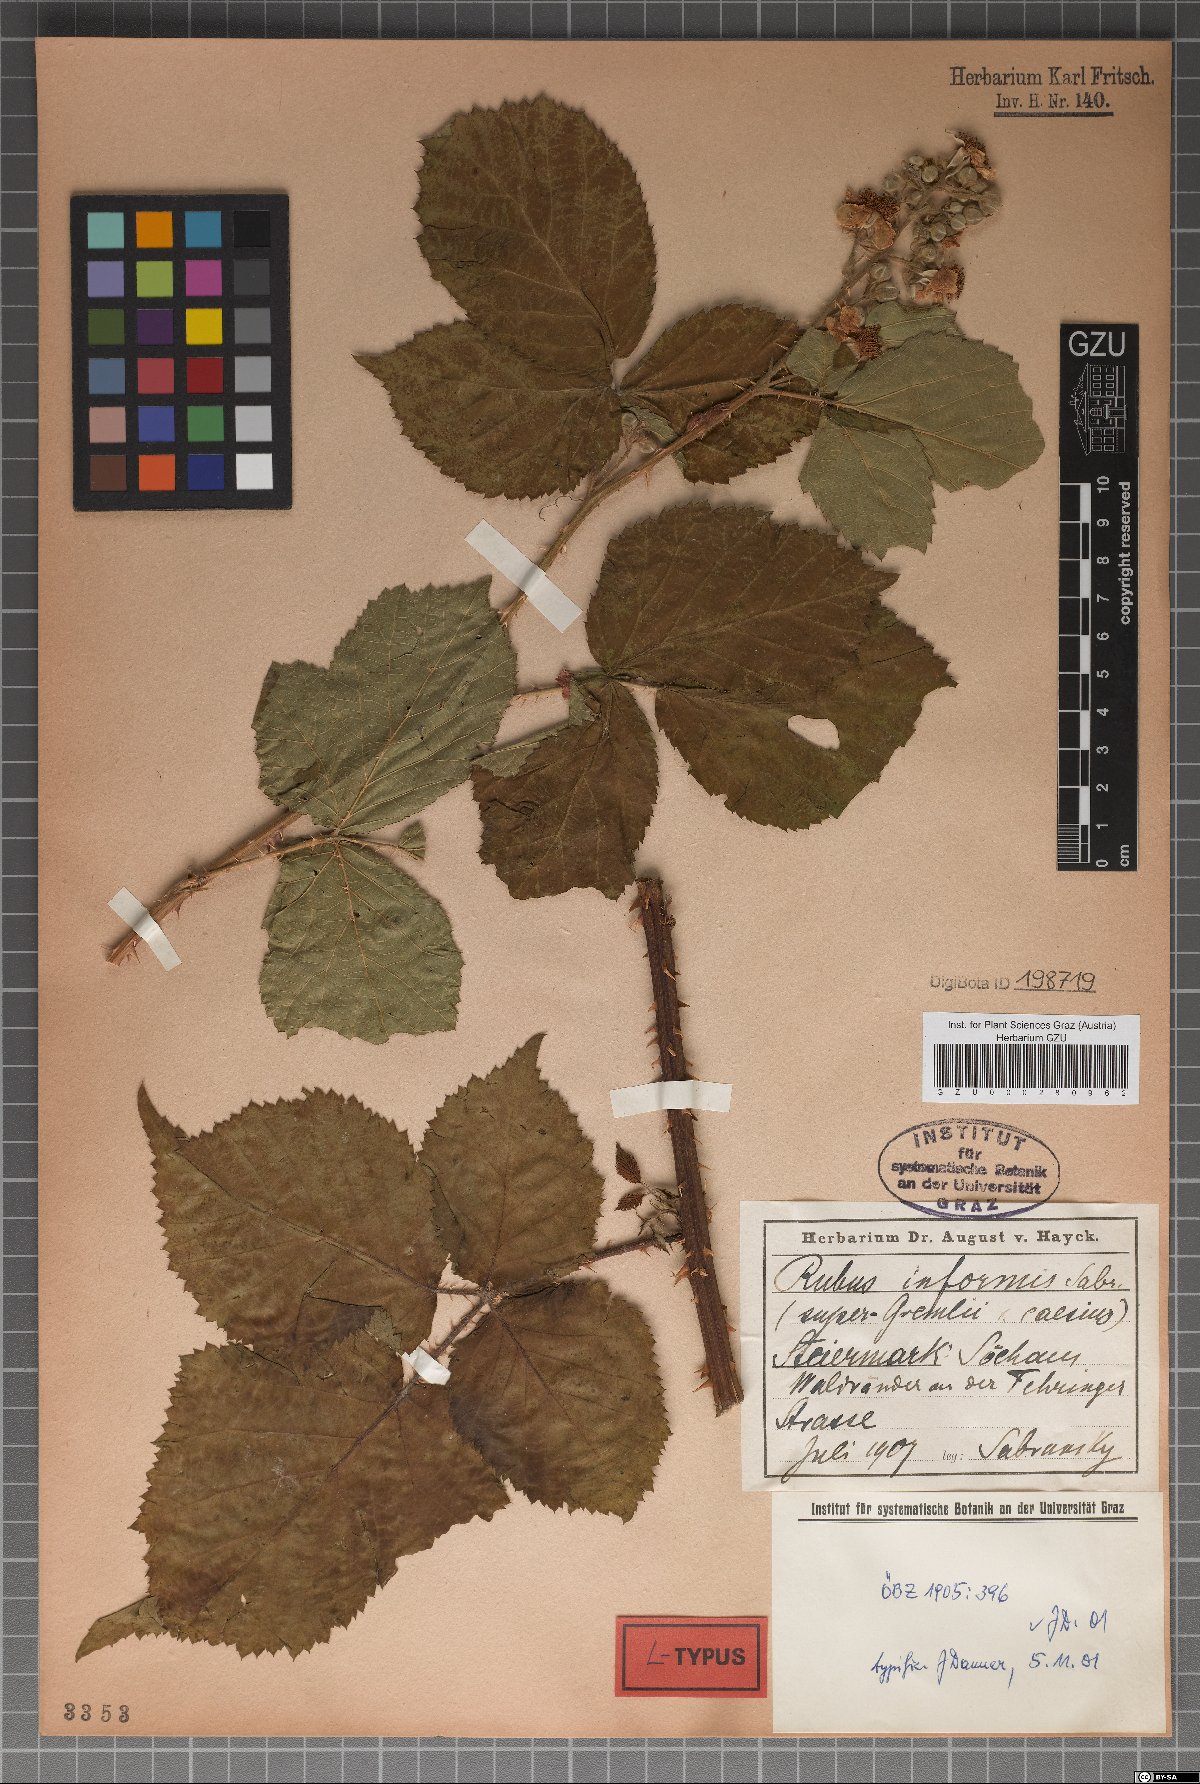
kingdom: Plantae
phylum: Tracheophyta
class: Magnoliopsida
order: Rosales
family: Rosaceae
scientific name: Rosaceae
